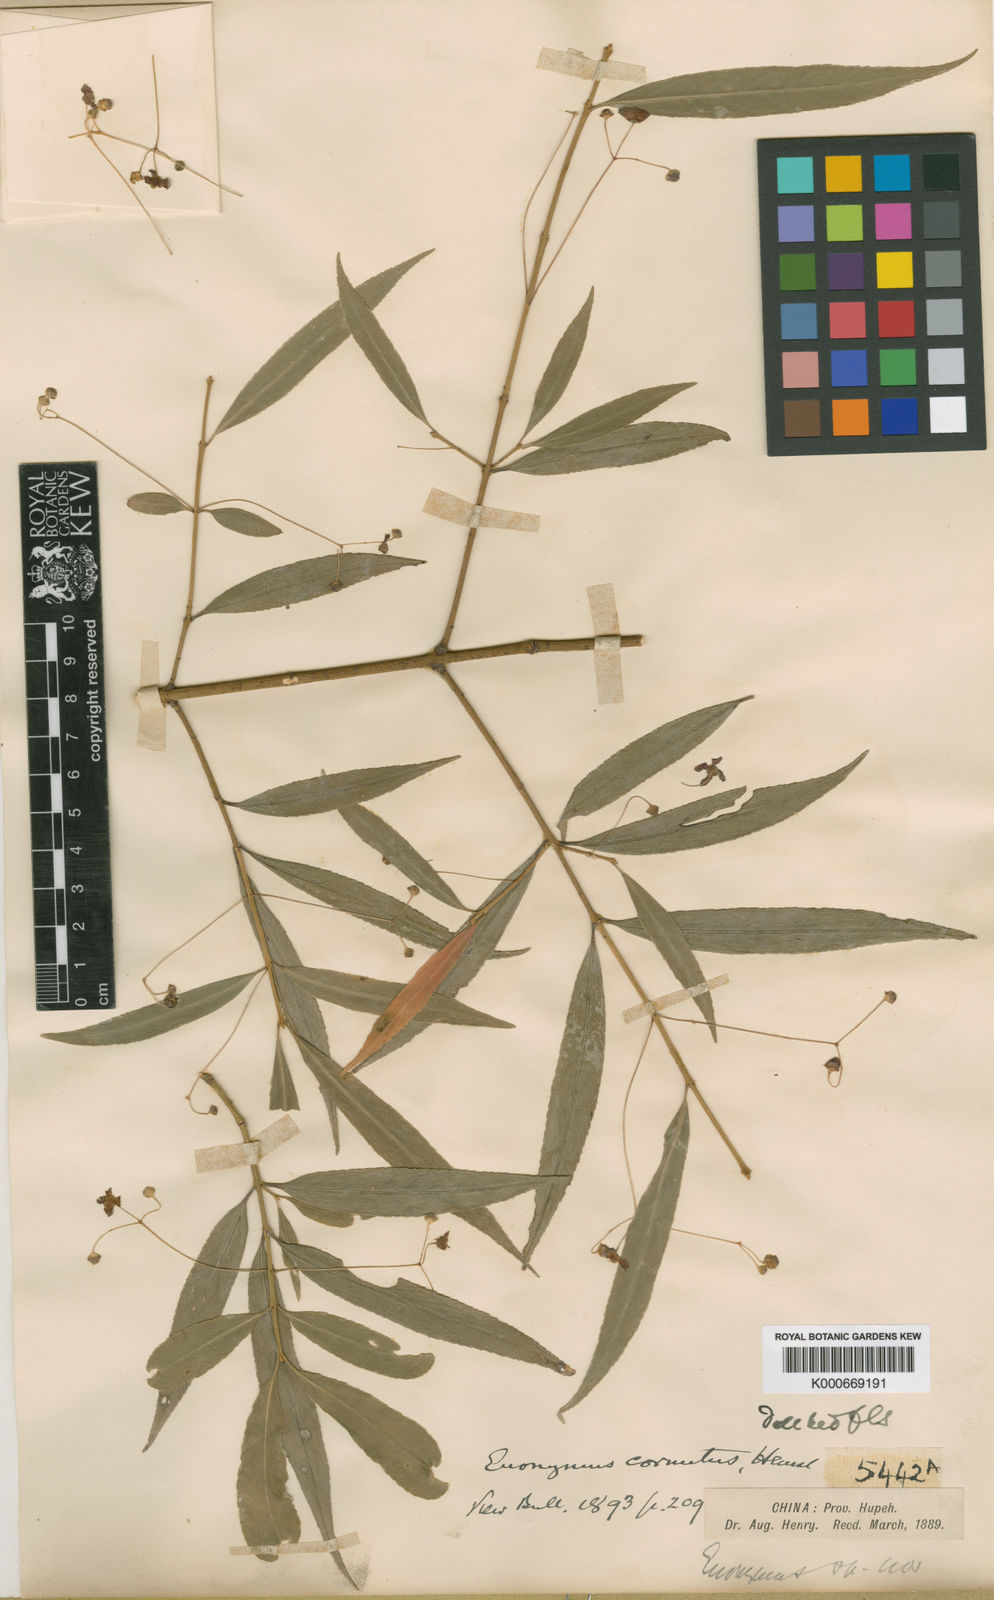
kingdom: Plantae
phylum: Tracheophyta
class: Magnoliopsida
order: Celastrales
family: Celastraceae
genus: Euonymus
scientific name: Euonymus cornutus
